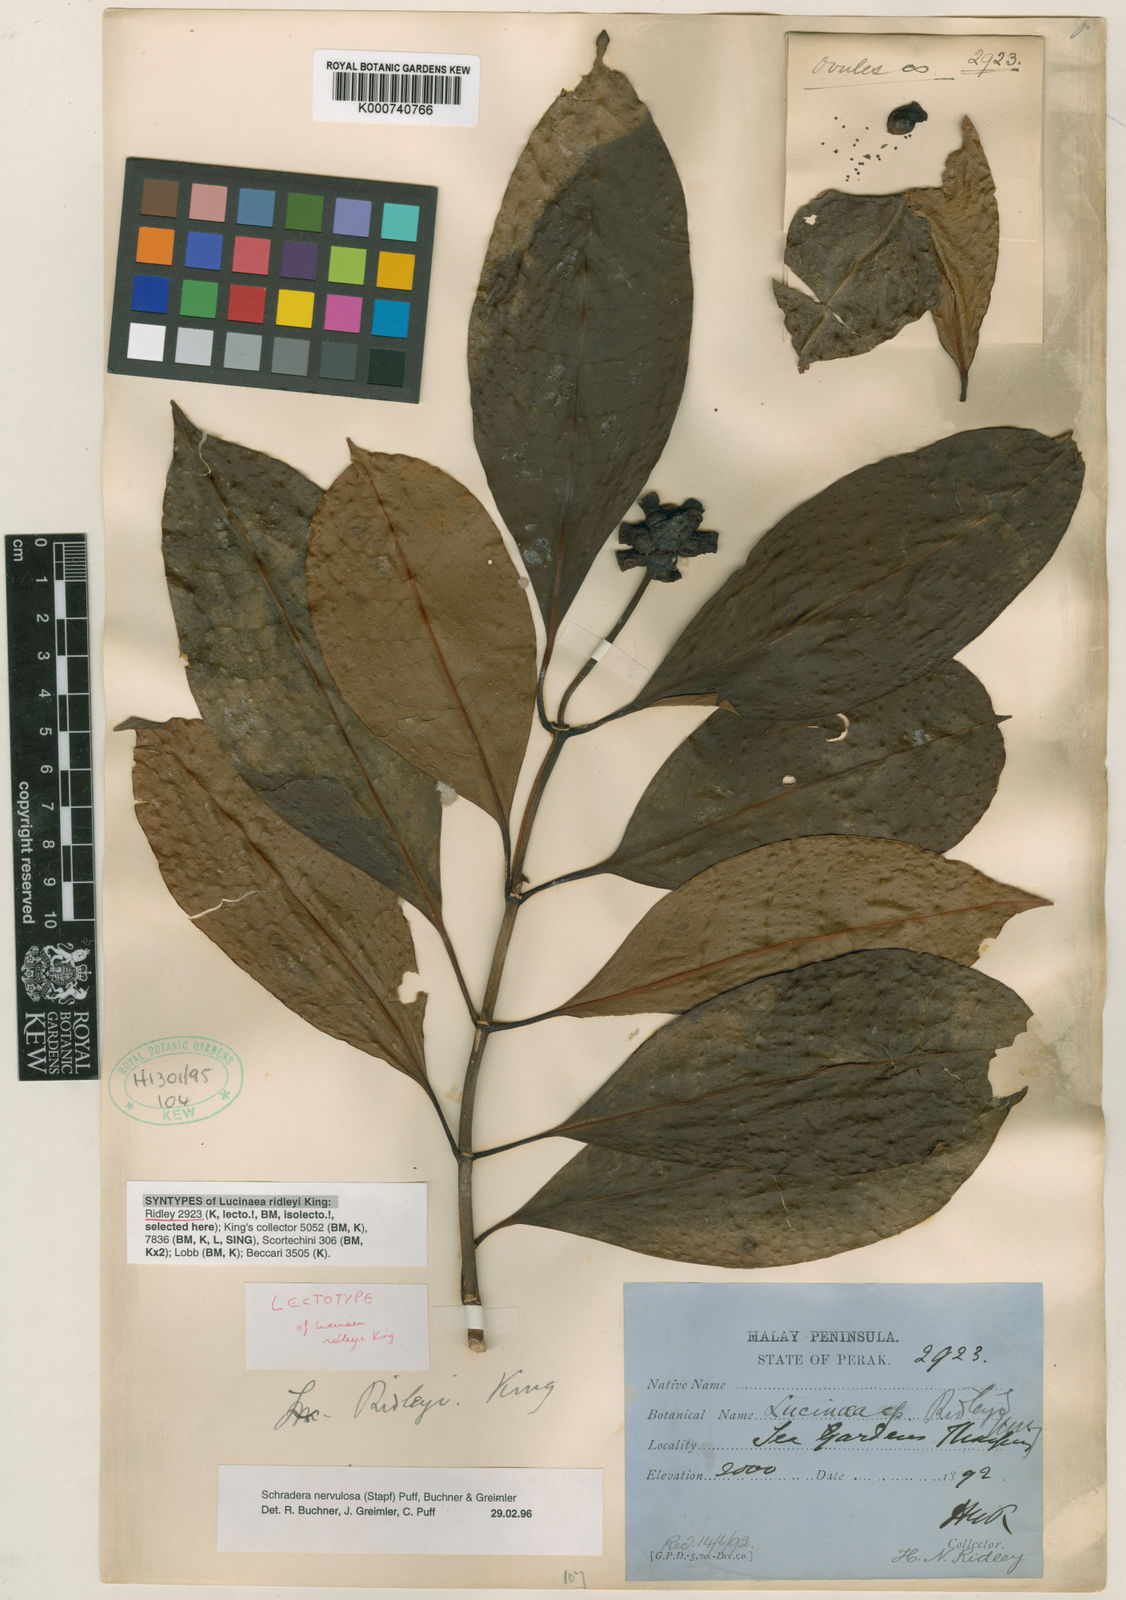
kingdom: Plantae
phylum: Tracheophyta
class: Magnoliopsida
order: Gentianales
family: Rubiaceae
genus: Schradera
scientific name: Schradera nervulosa
